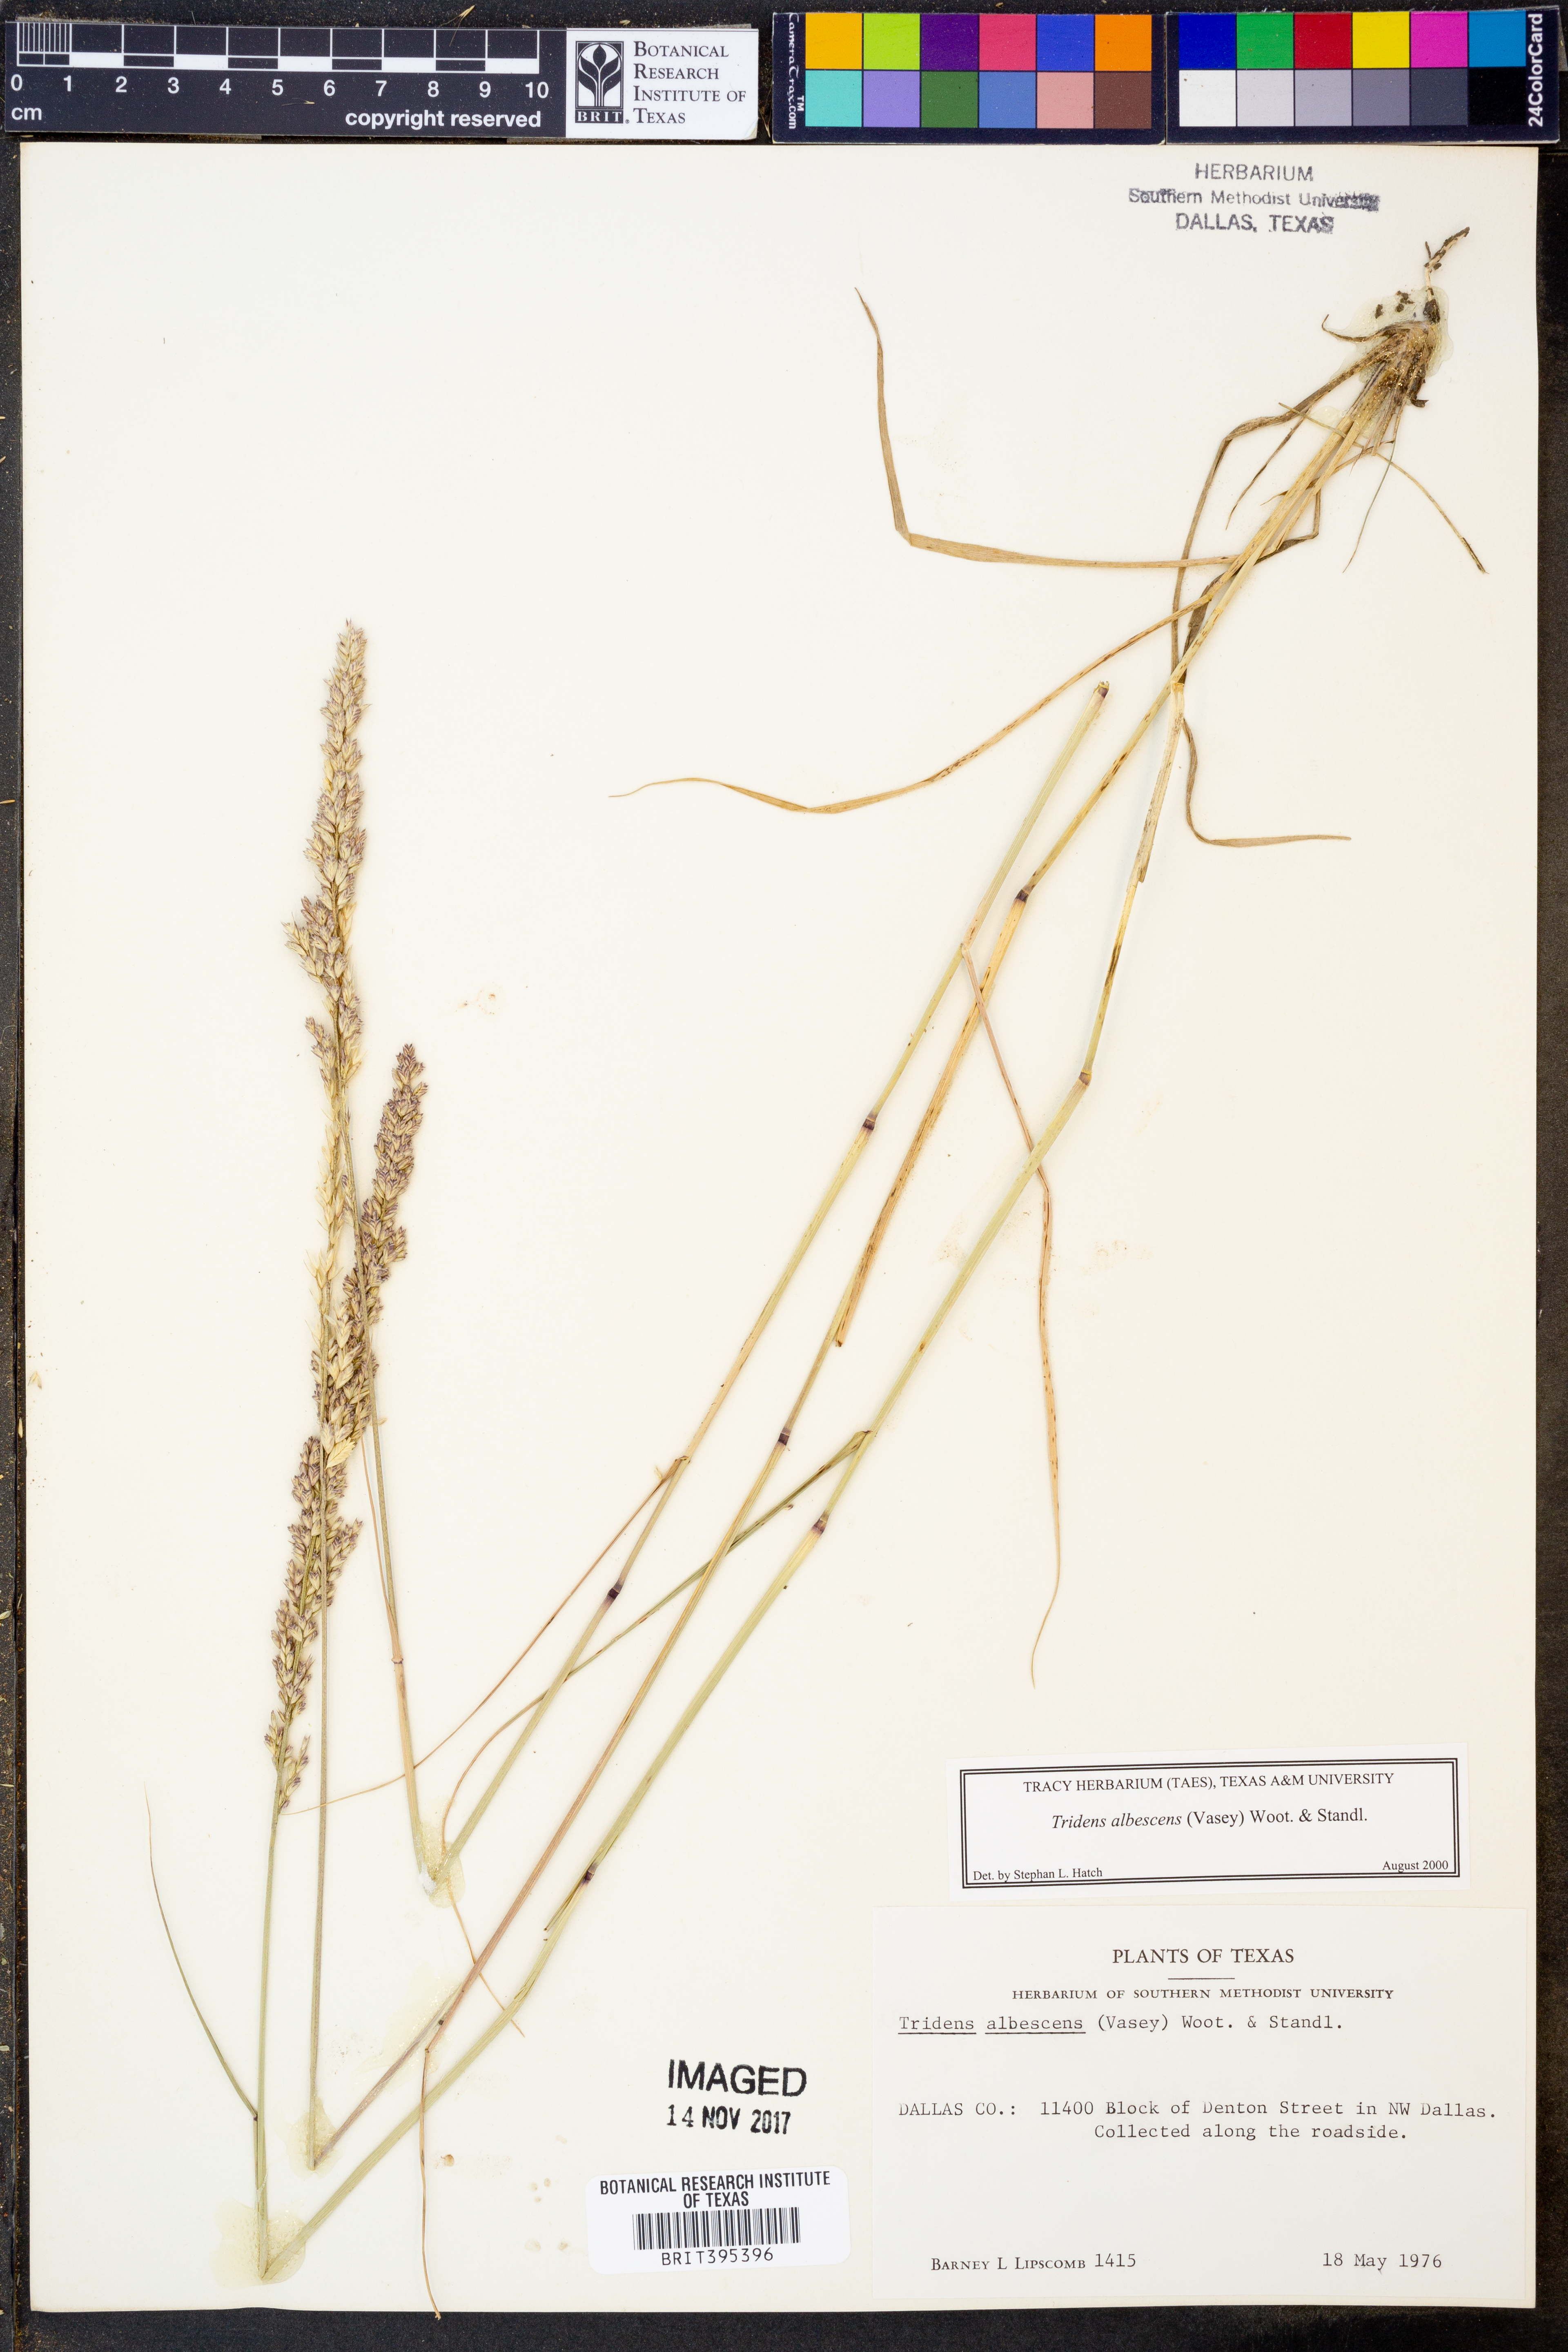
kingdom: Plantae
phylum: Tracheophyta
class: Liliopsida
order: Poales
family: Poaceae
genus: Tridens
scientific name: Tridens albescens
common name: White tridens
